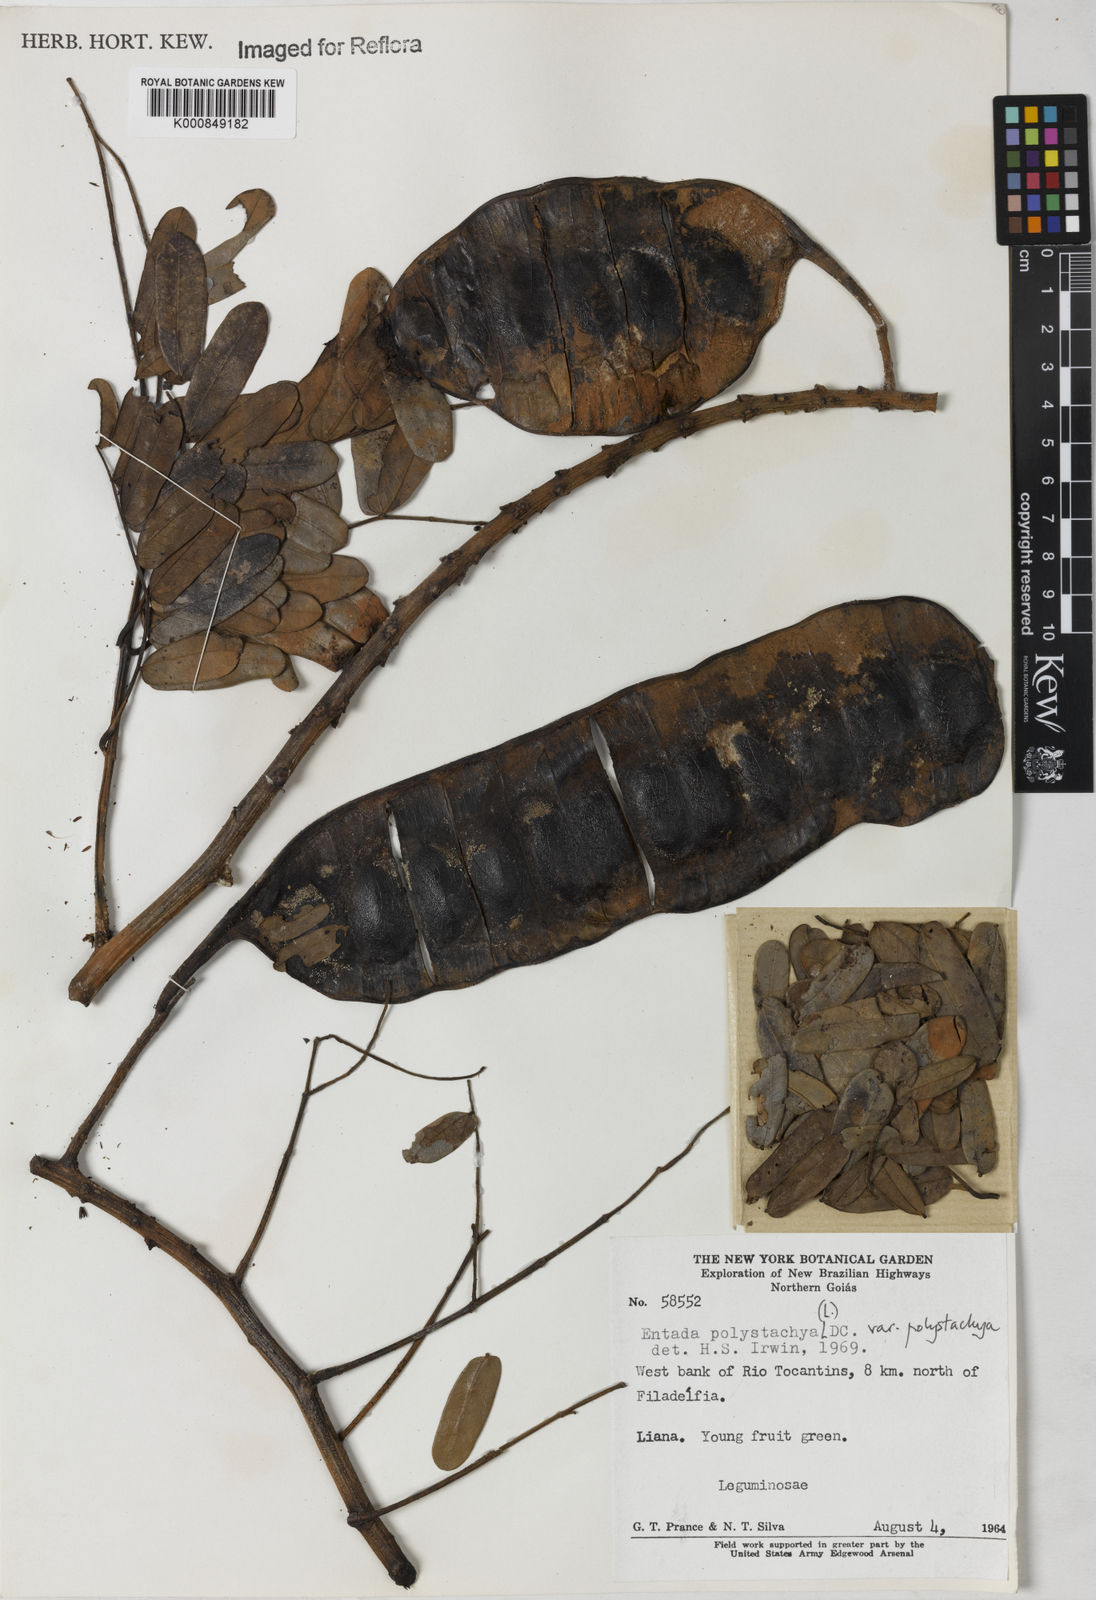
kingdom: Plantae
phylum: Tracheophyta
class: Magnoliopsida
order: Fabales
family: Fabaceae
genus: Entada
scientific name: Entada polystachya
